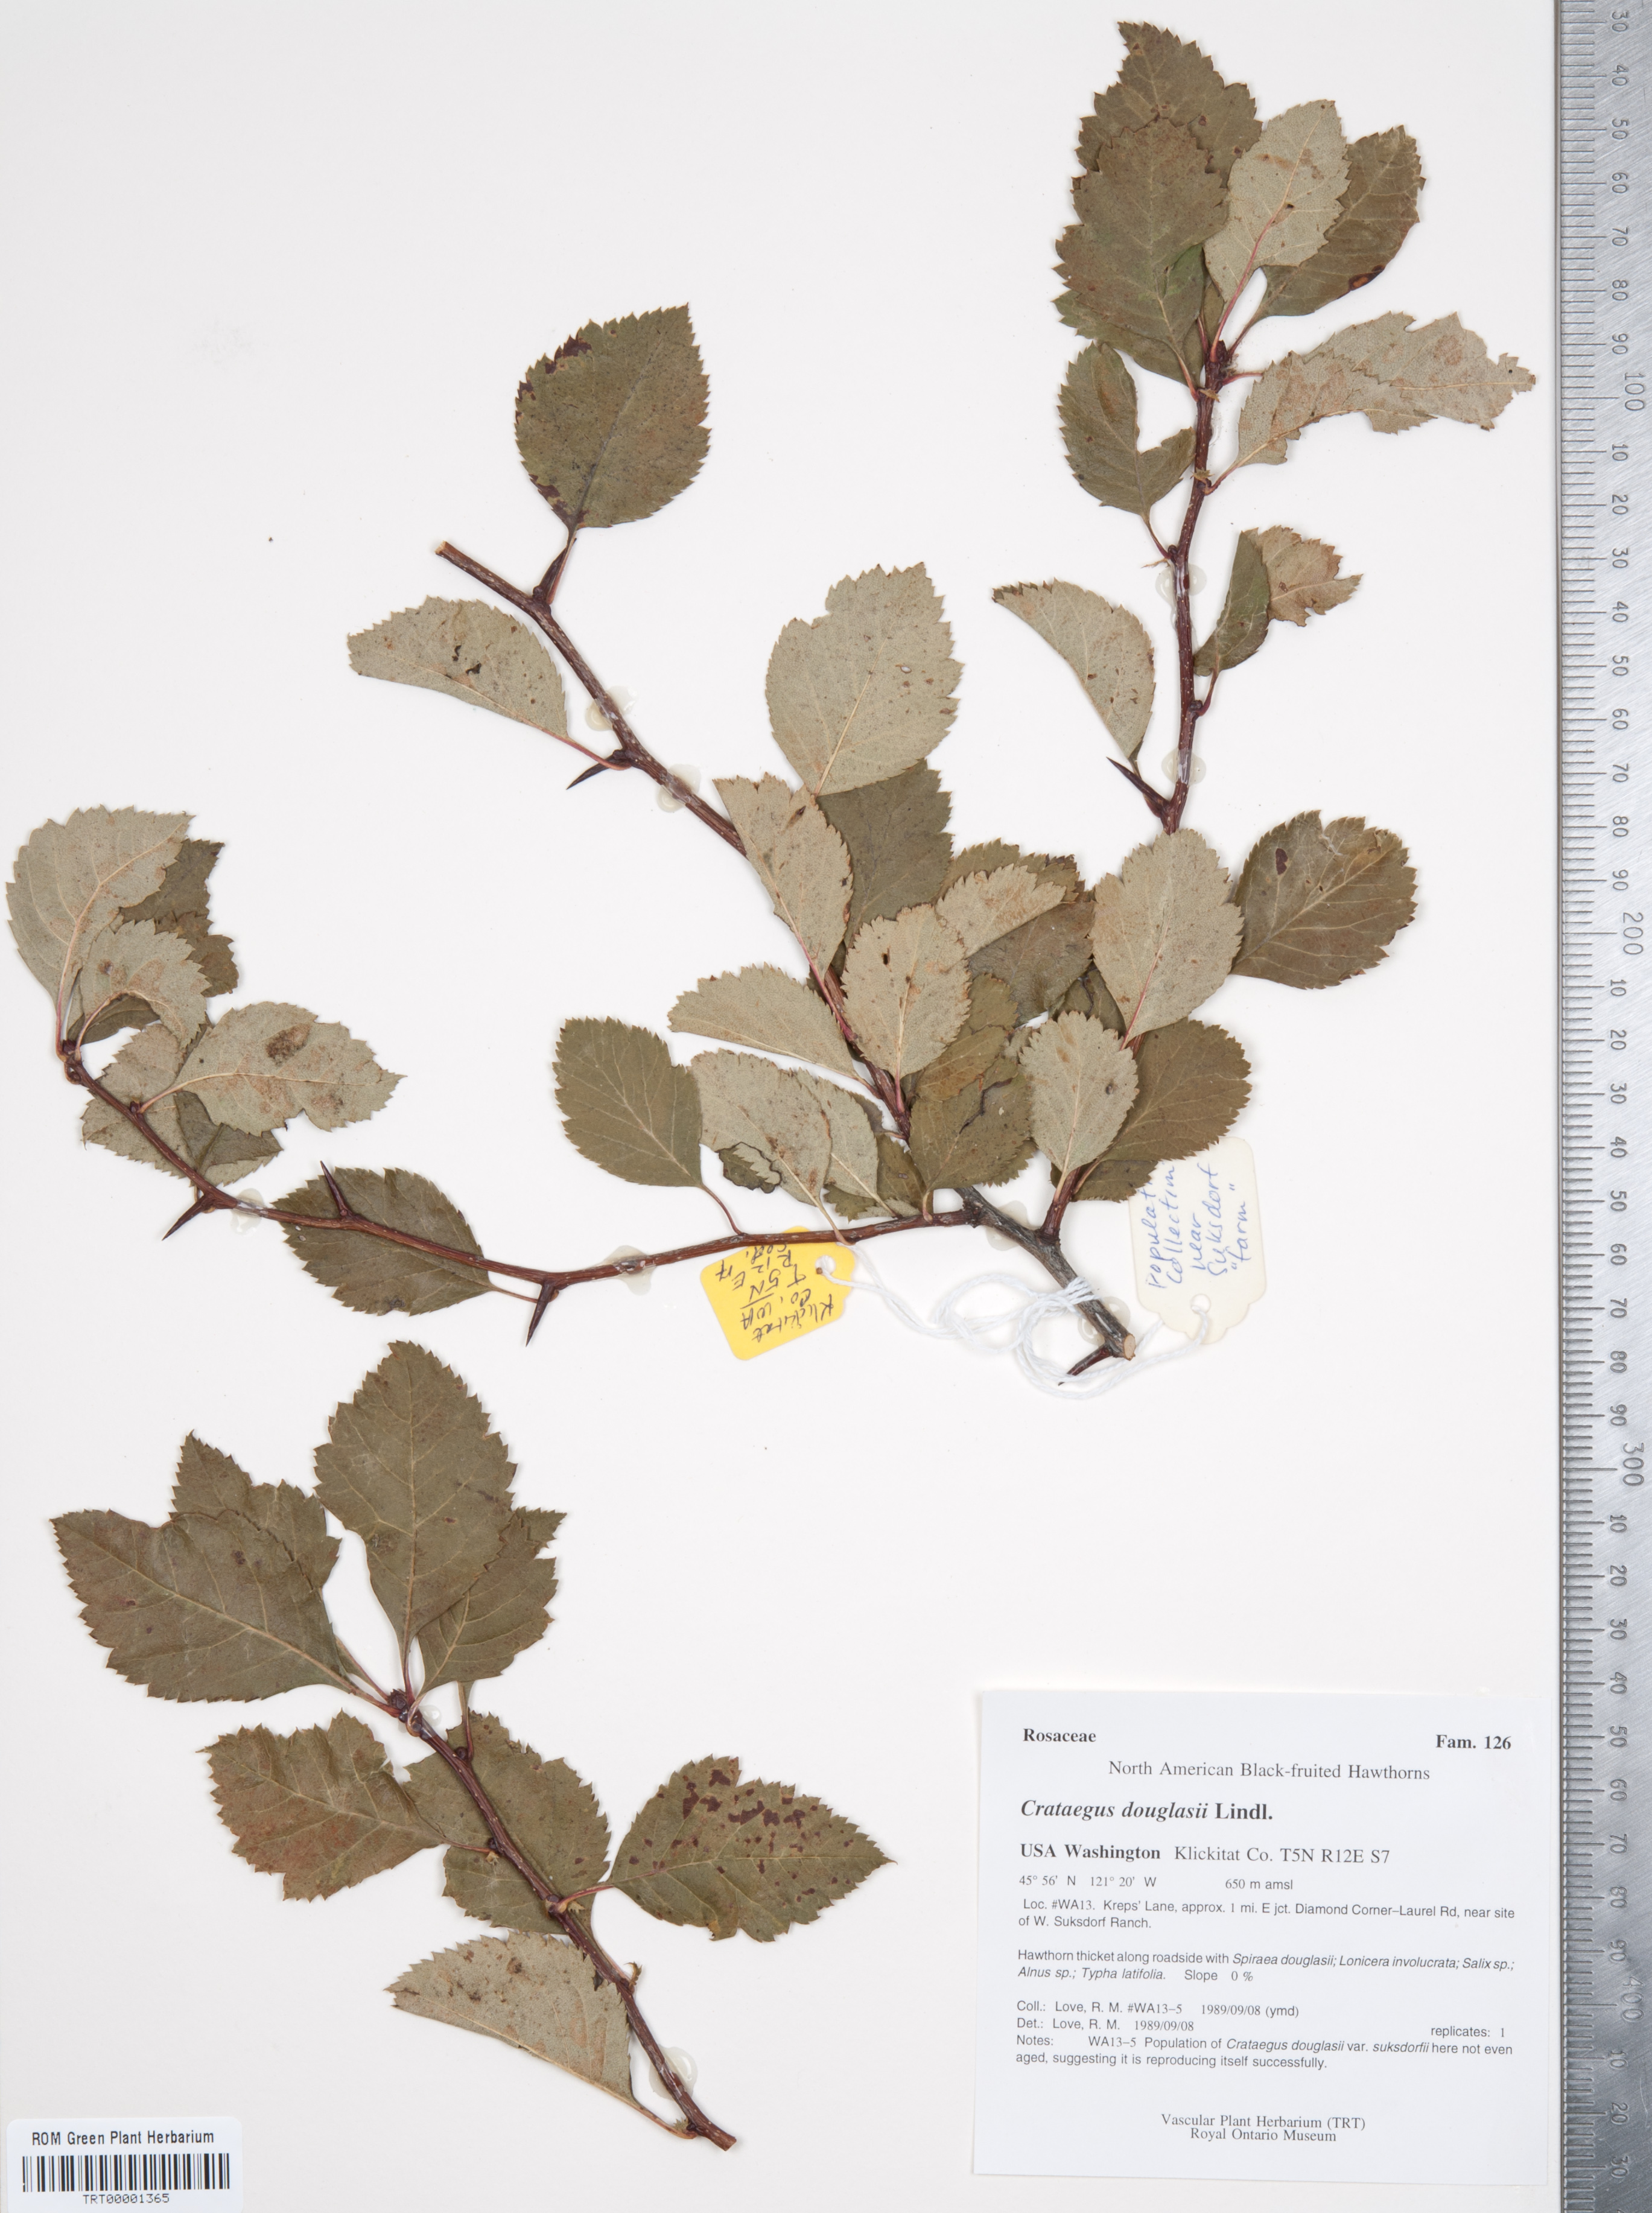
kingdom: Plantae
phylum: Tracheophyta
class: Magnoliopsida
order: Rosales
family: Rosaceae
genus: Crataegus
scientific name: Crataegus douglasii
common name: Black hawthorn
